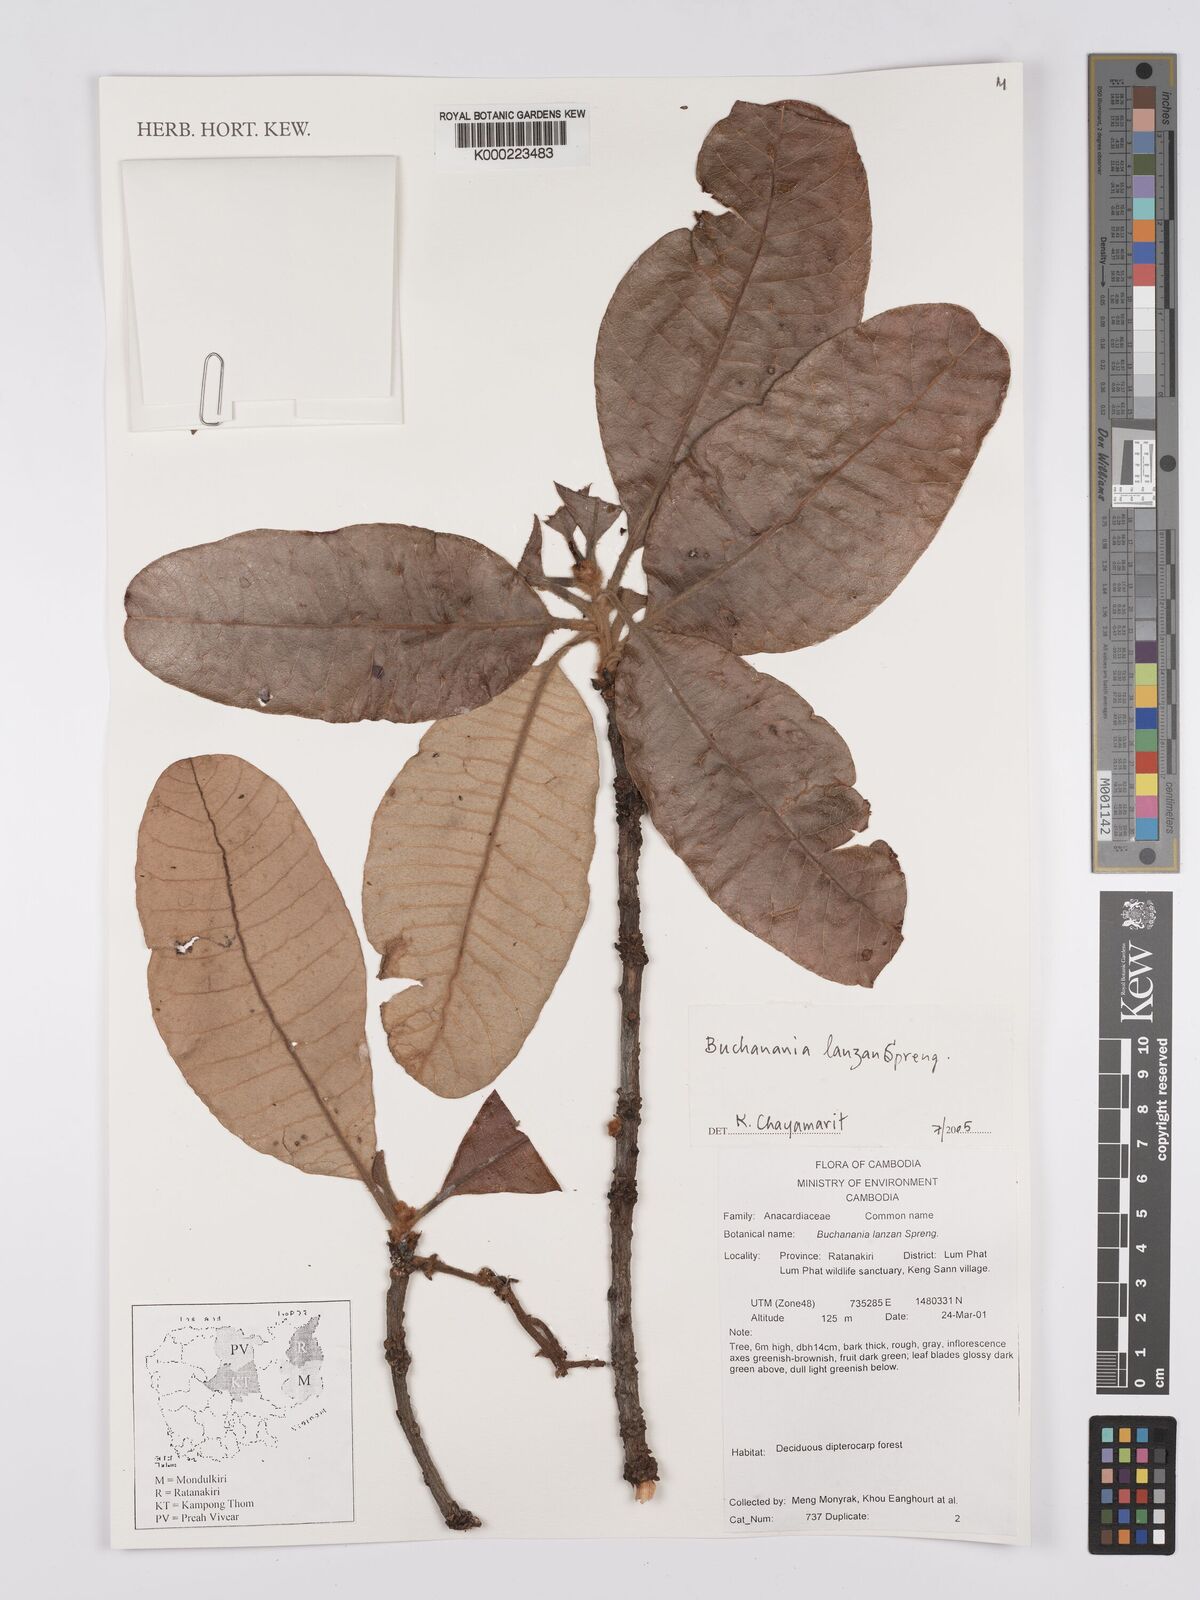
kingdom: Plantae
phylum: Tracheophyta
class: Magnoliopsida
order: Sapindales
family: Anacardiaceae
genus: Buchanania
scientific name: Buchanania cochinchinensis
